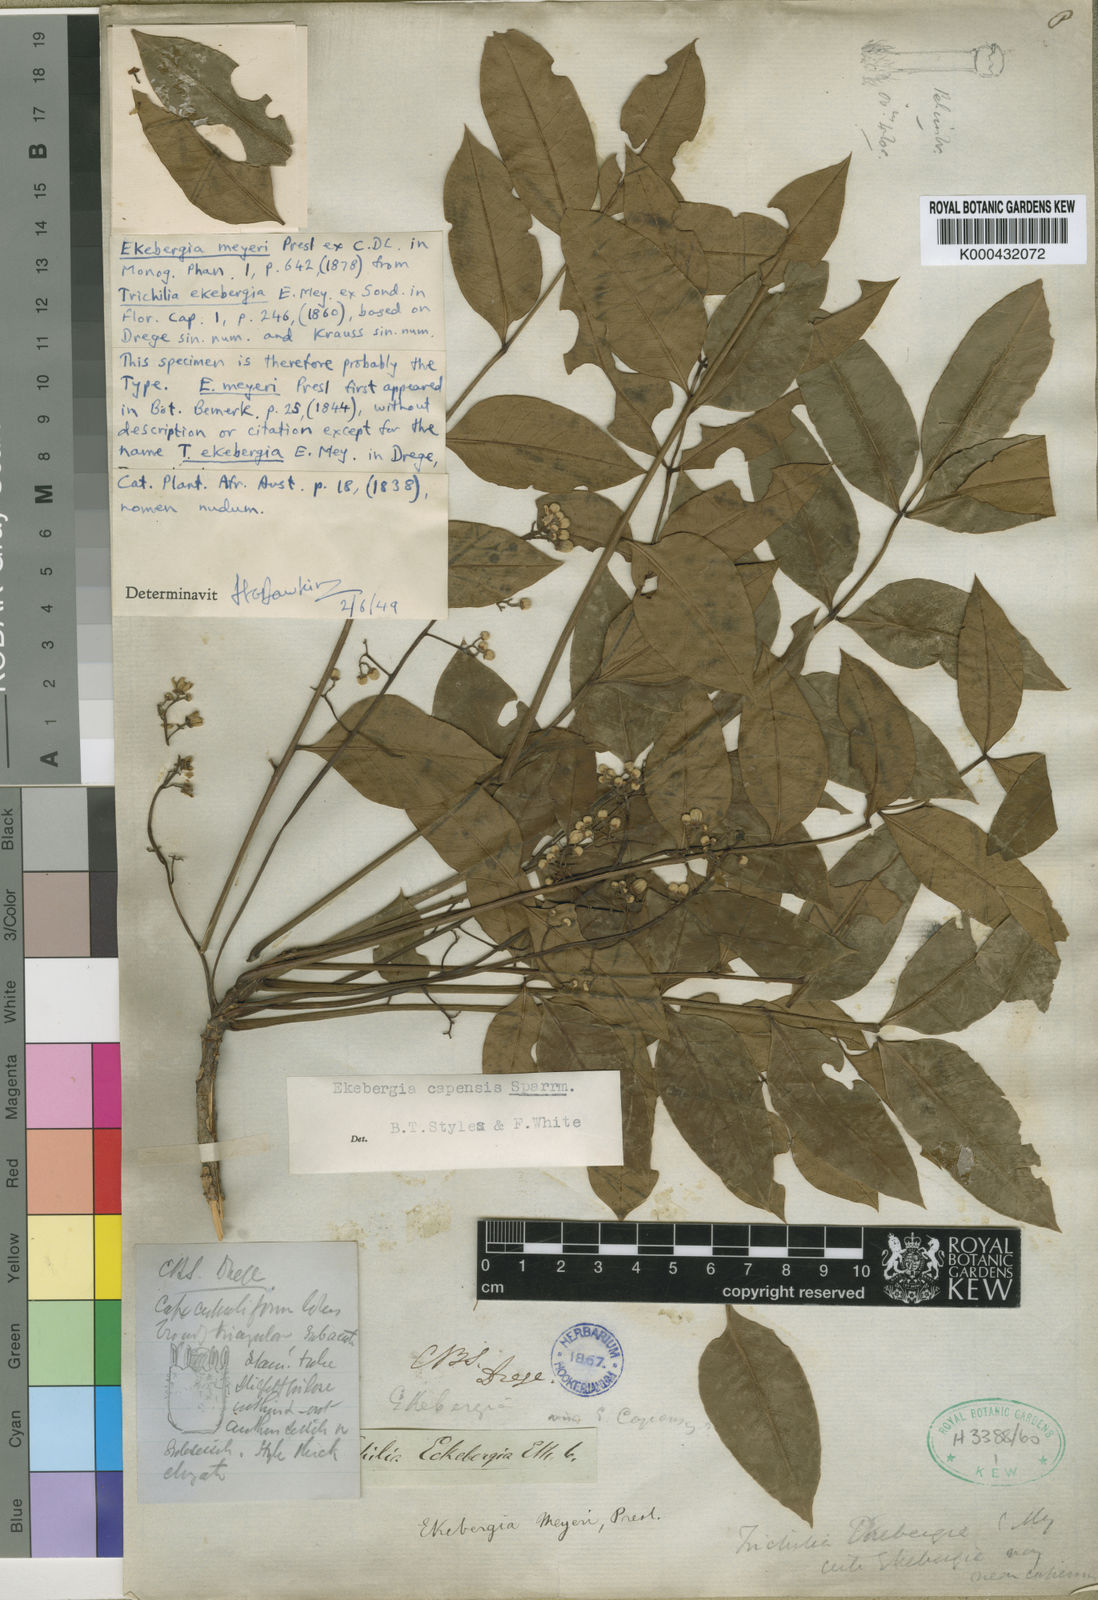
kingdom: Plantae
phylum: Tracheophyta
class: Magnoliopsida
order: Sapindales
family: Meliaceae
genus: Ekebergia
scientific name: Ekebergia capensis
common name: Cape-ash
